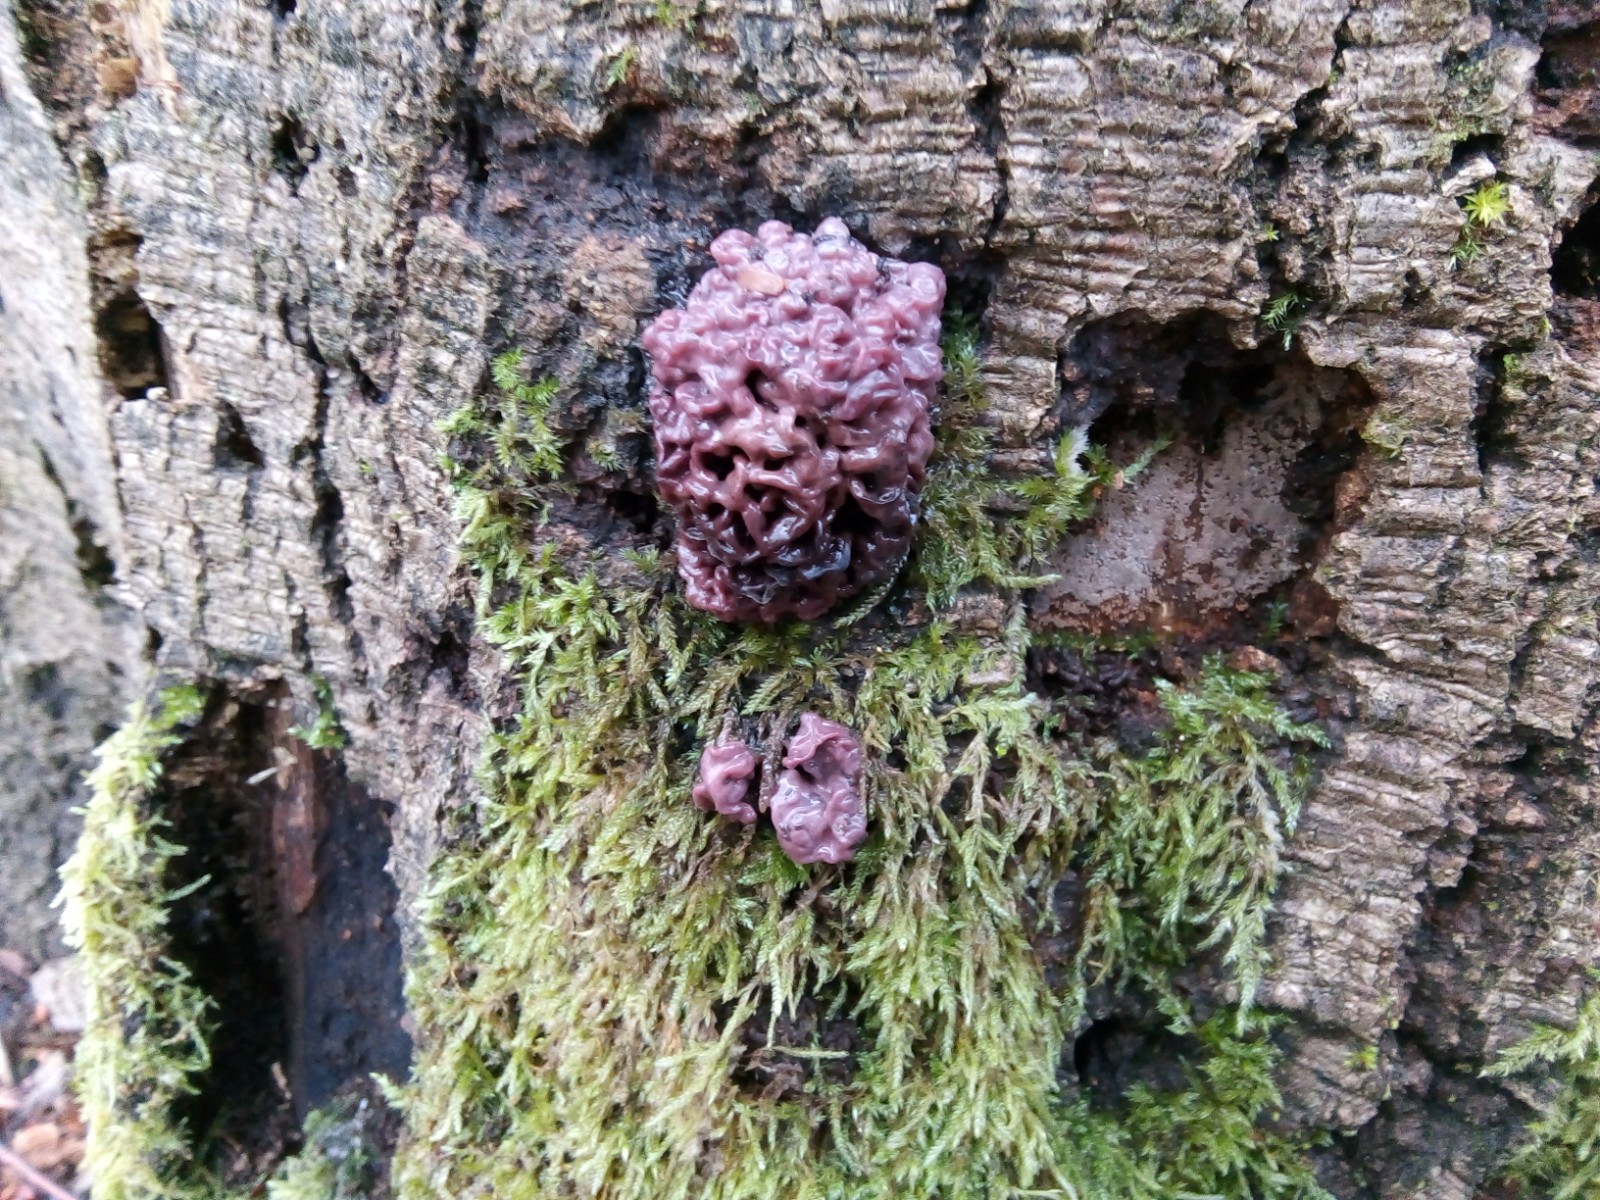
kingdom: Fungi
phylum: Ascomycota
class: Leotiomycetes
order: Helotiales
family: Gelatinodiscaceae
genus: Ascocoryne
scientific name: Ascocoryne sarcoides
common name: rødlilla sejskive
